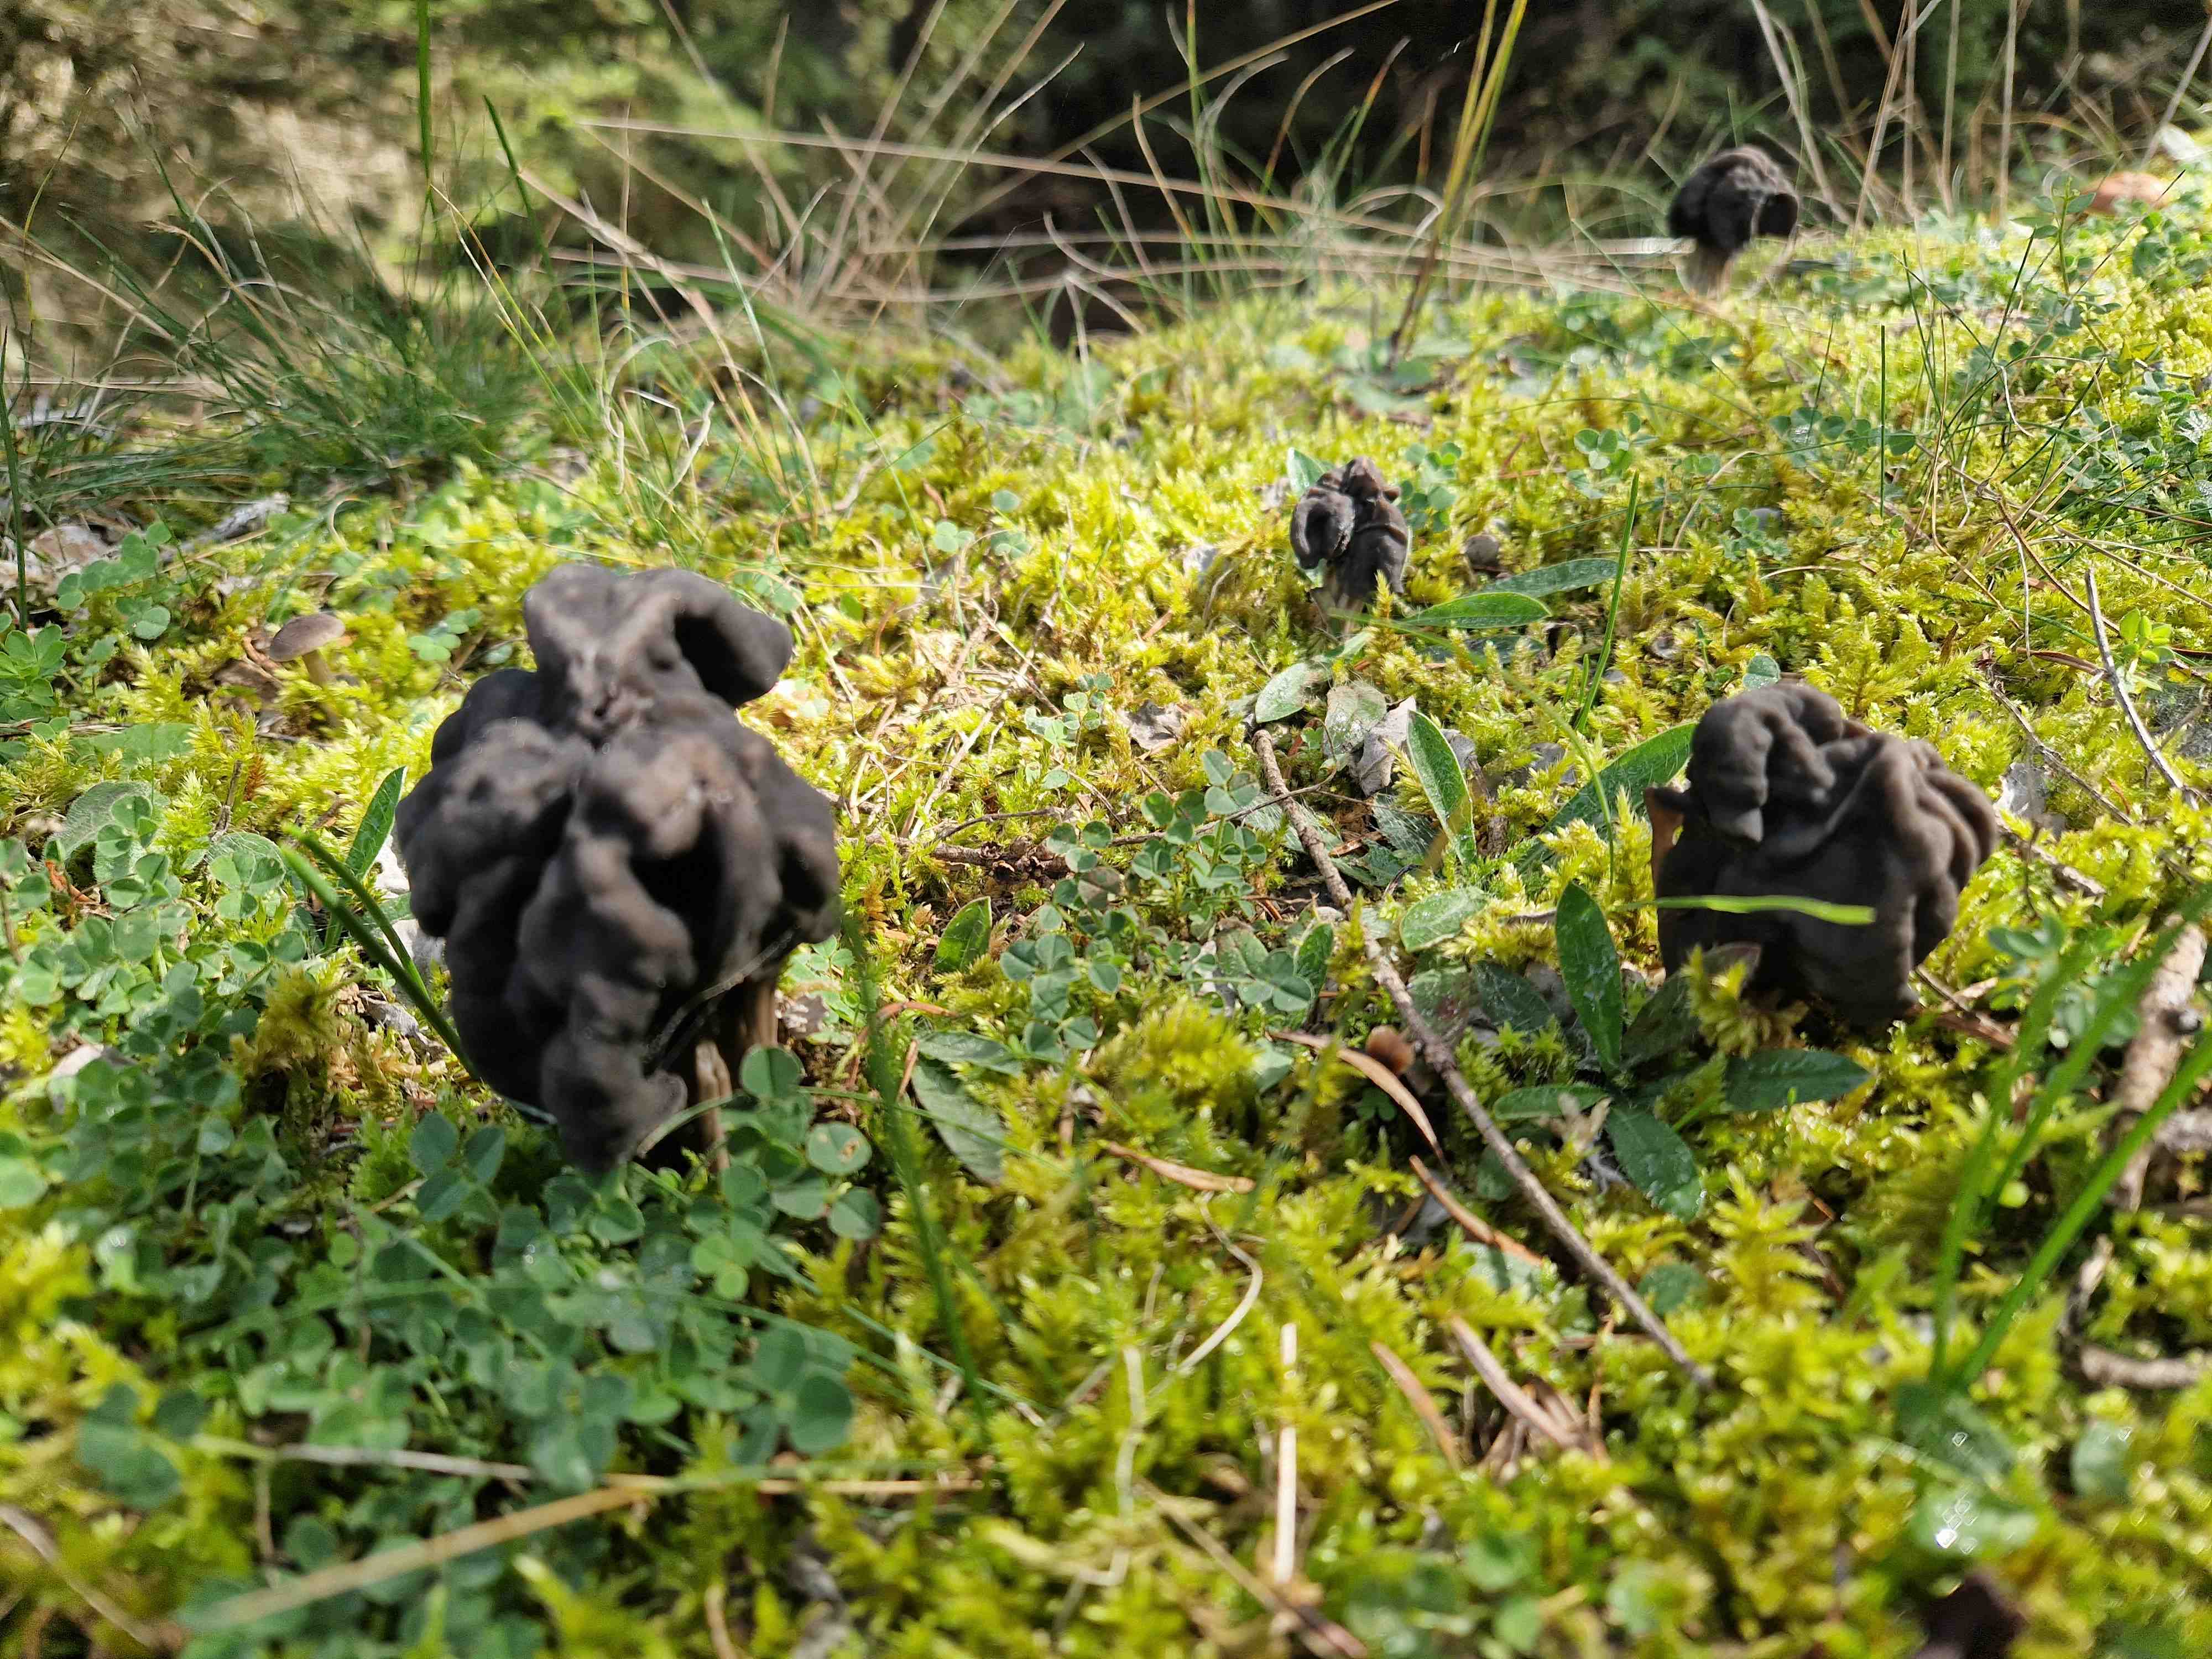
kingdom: Fungi
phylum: Ascomycota
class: Pezizomycetes
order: Pezizales
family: Helvellaceae
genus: Helvella
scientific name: Helvella lacunosa
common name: grubet foldhat
